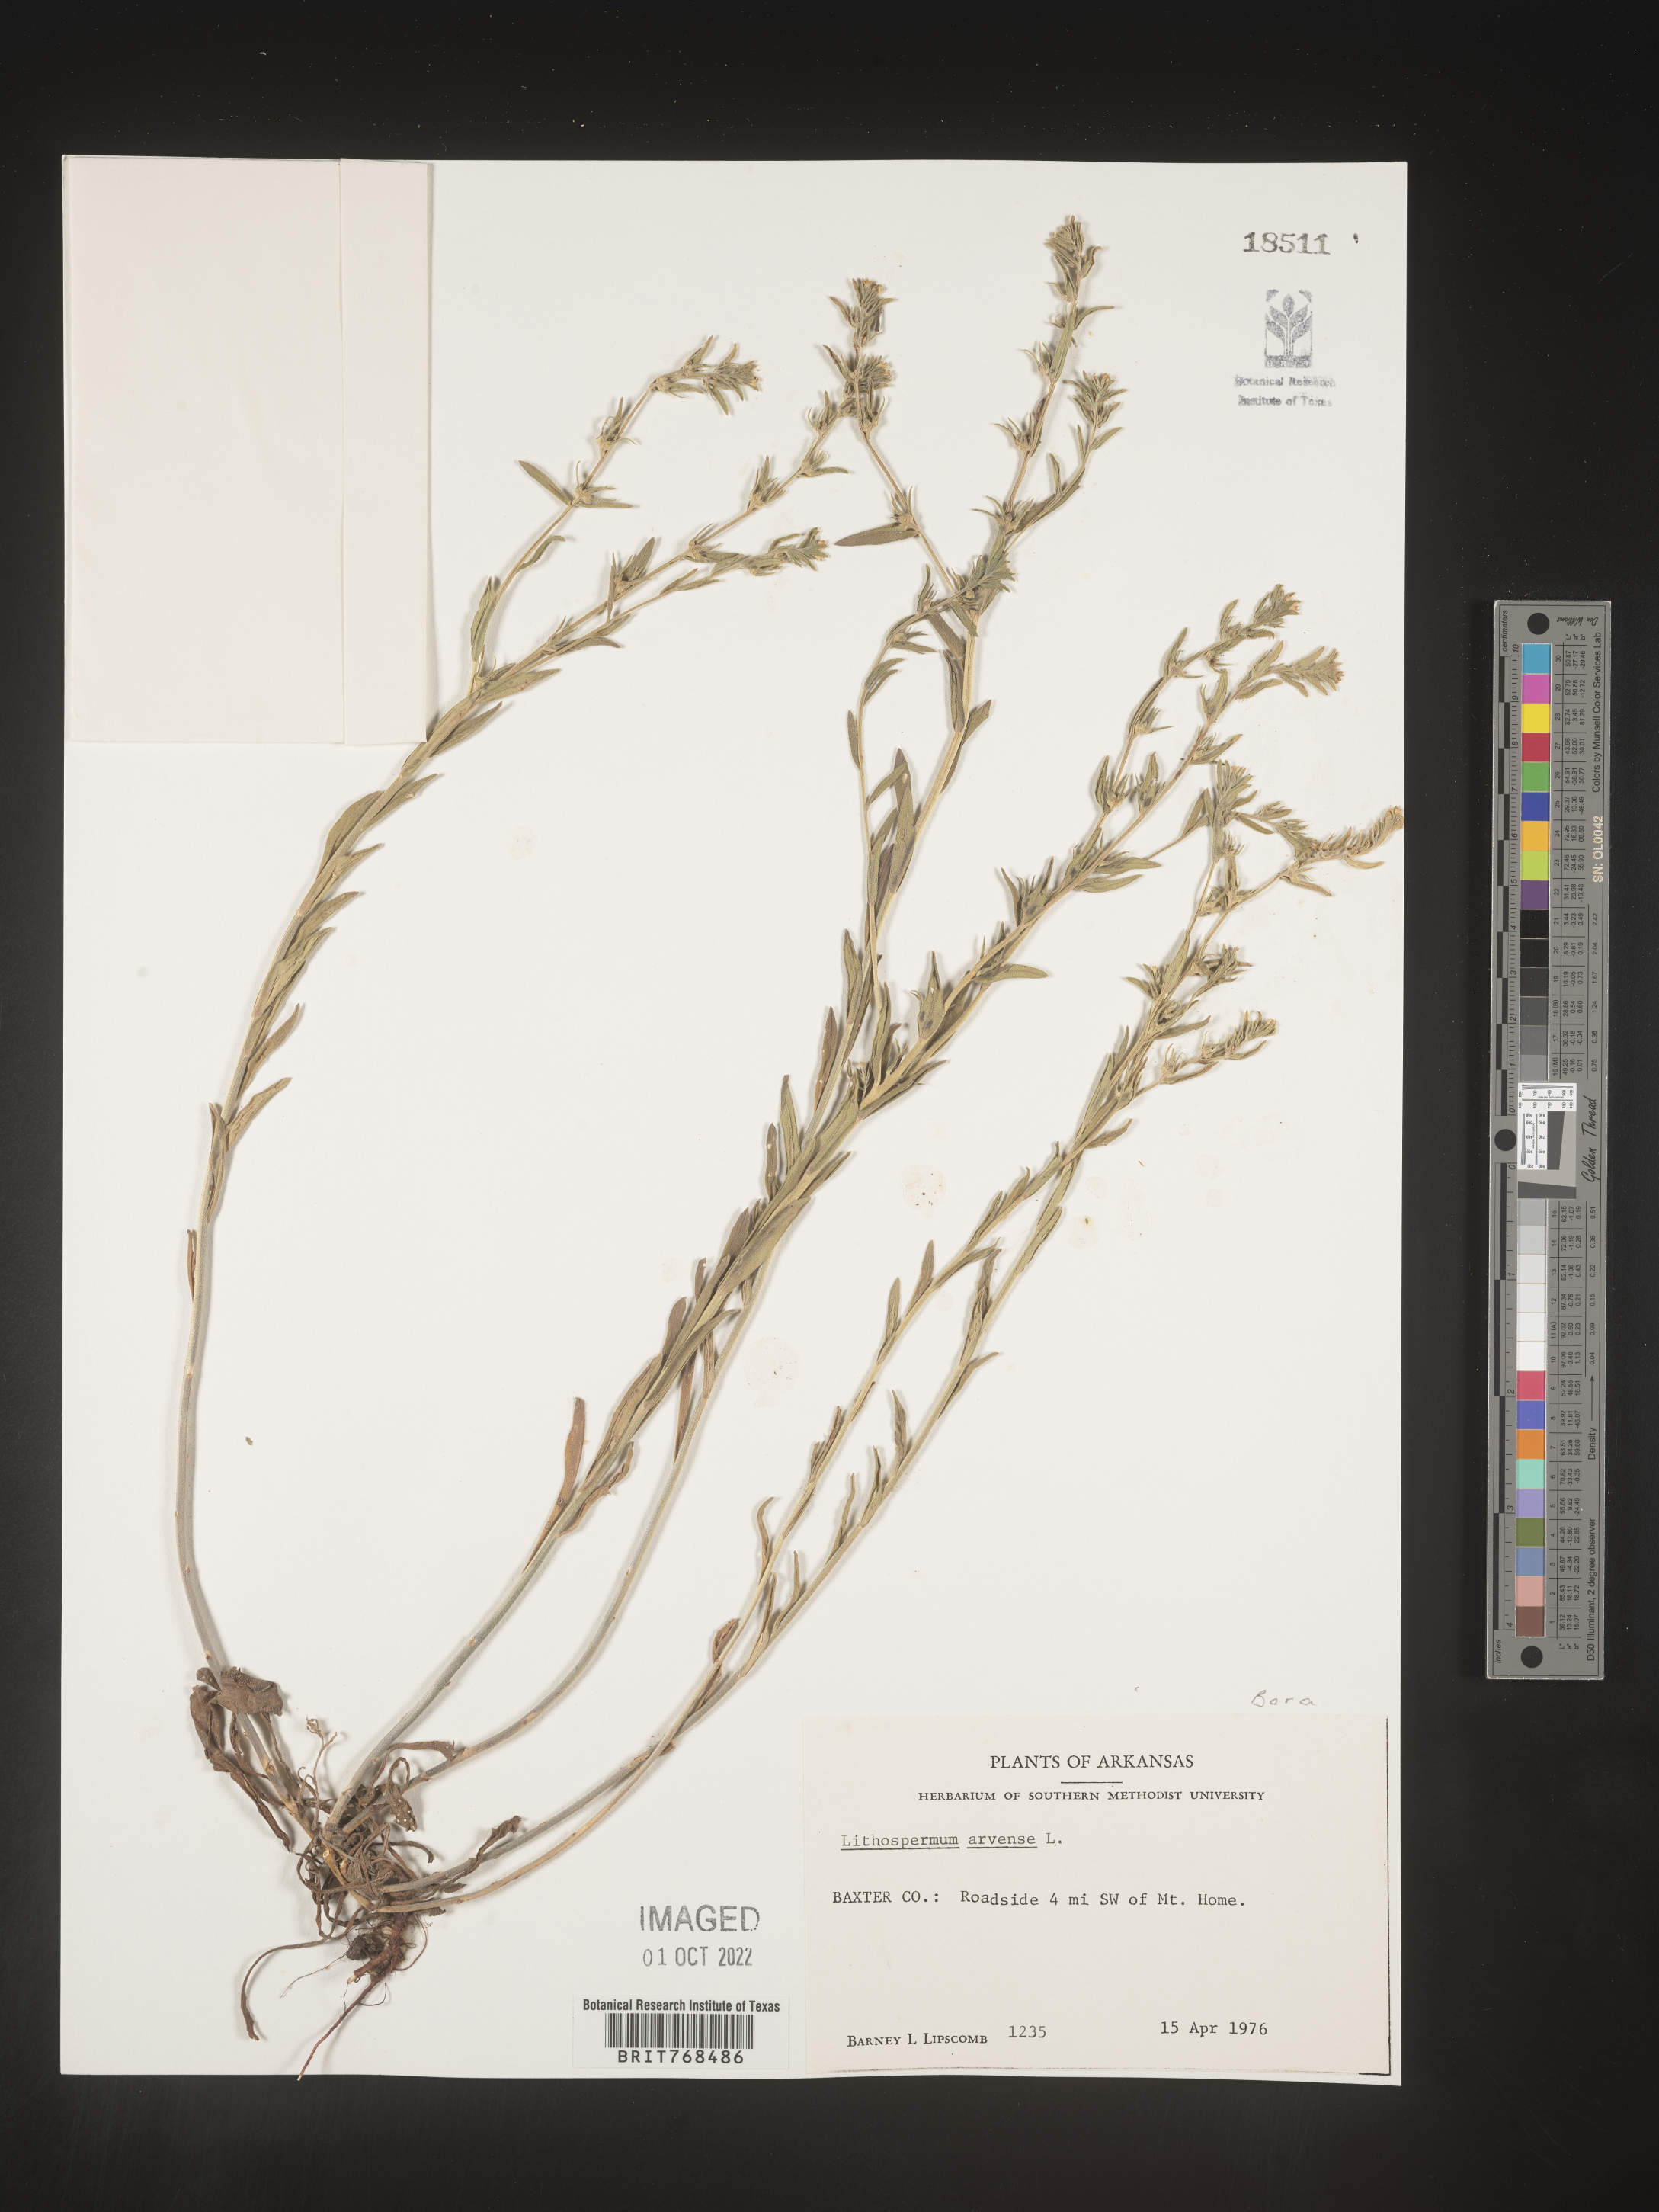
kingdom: Plantae
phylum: Tracheophyta
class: Magnoliopsida
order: Boraginales
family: Boraginaceae
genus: Lithospermum
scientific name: Lithospermum
